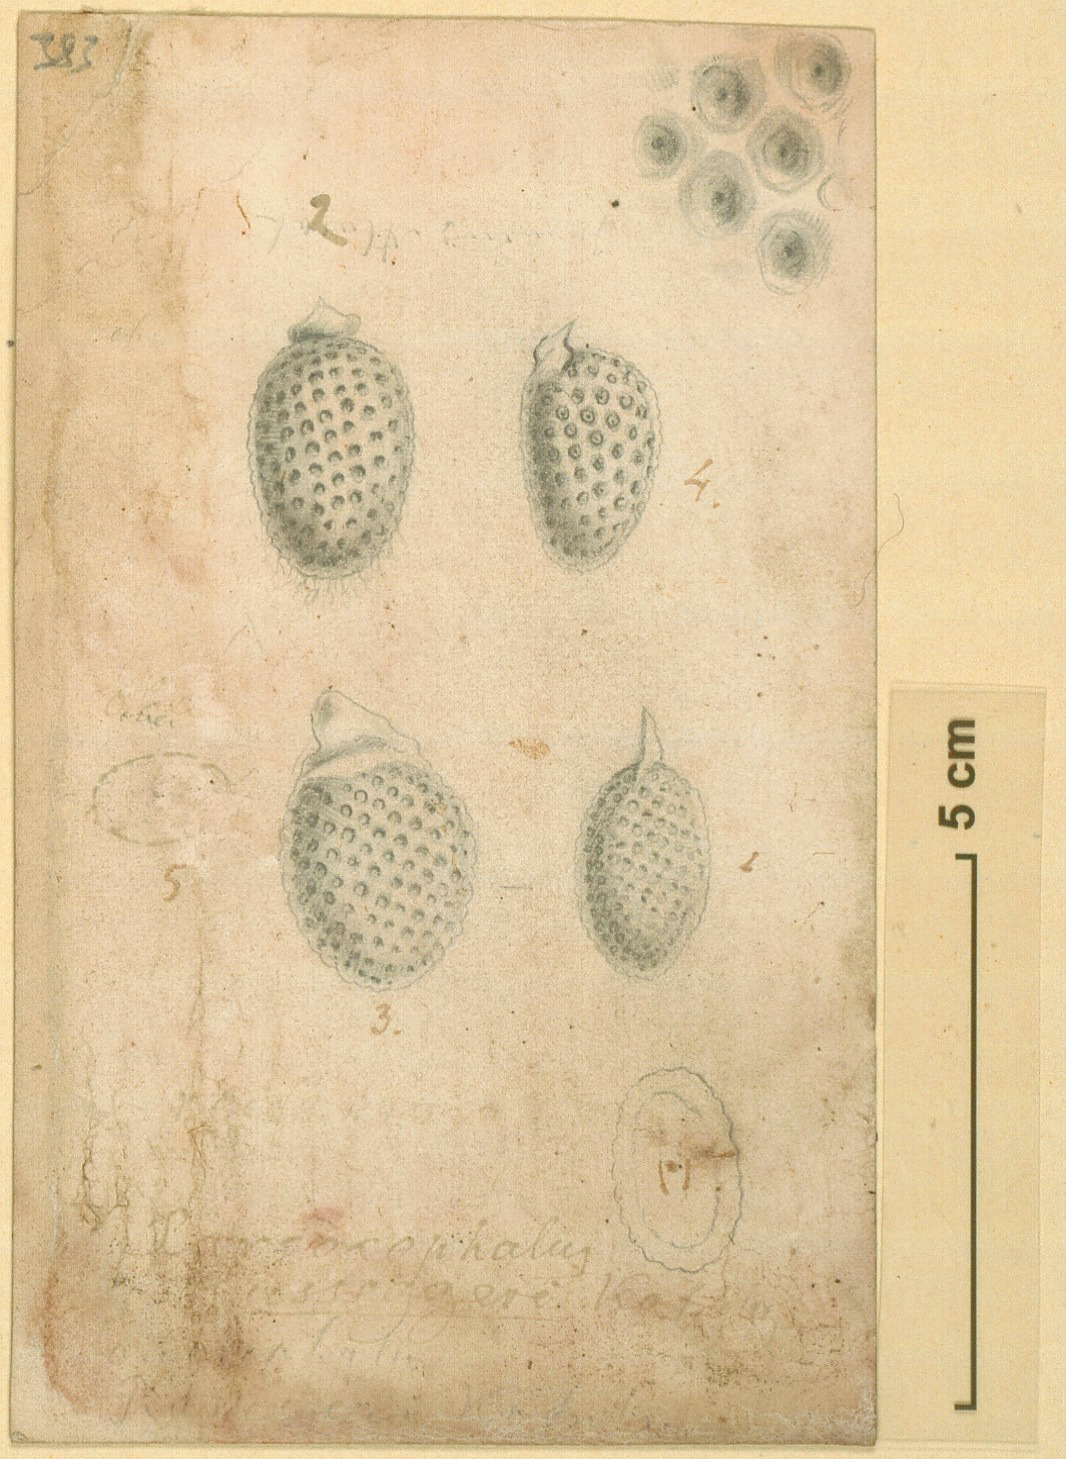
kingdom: Plantae
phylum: Tracheophyta
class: Magnoliopsida
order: Gentianales
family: Rubiaceae
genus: Nauclea
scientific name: Nauclea latifolia
